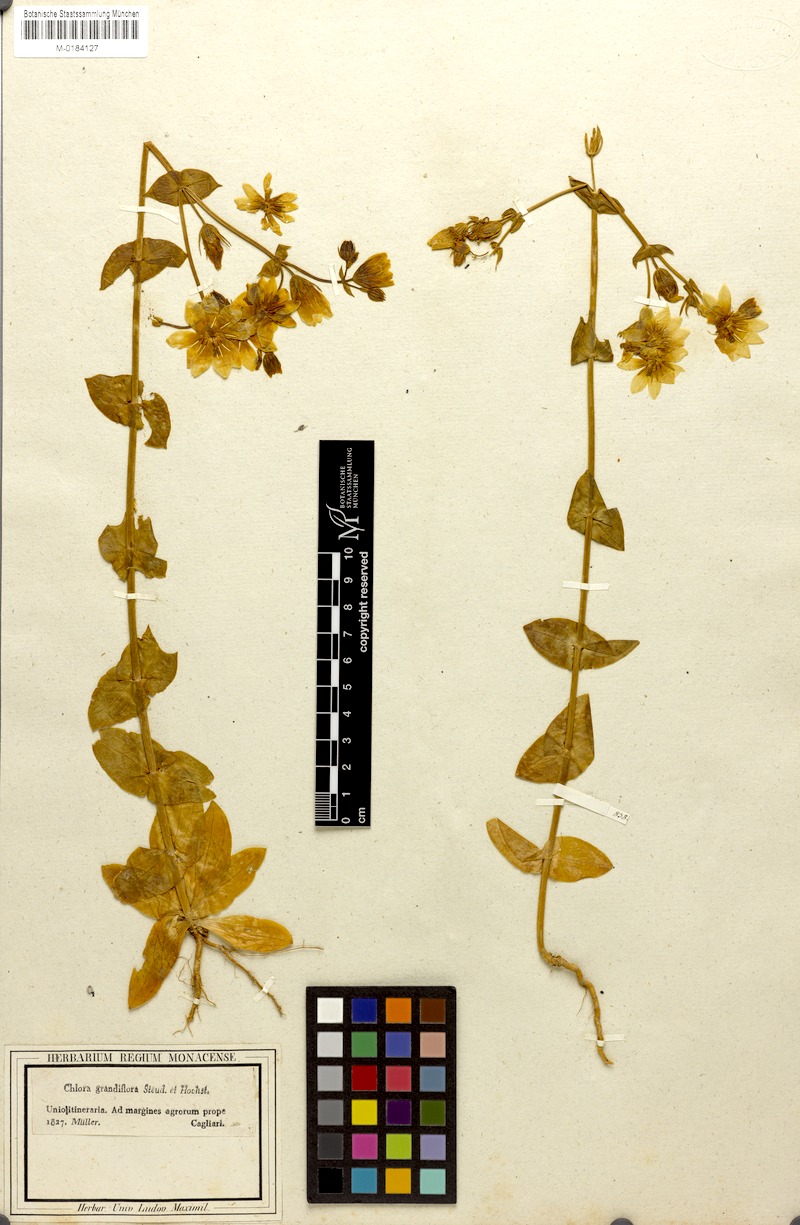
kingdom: Plantae
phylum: Tracheophyta
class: Magnoliopsida
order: Gentianales
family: Gentianaceae
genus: Blackstonia
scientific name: Blackstonia grandiflora
